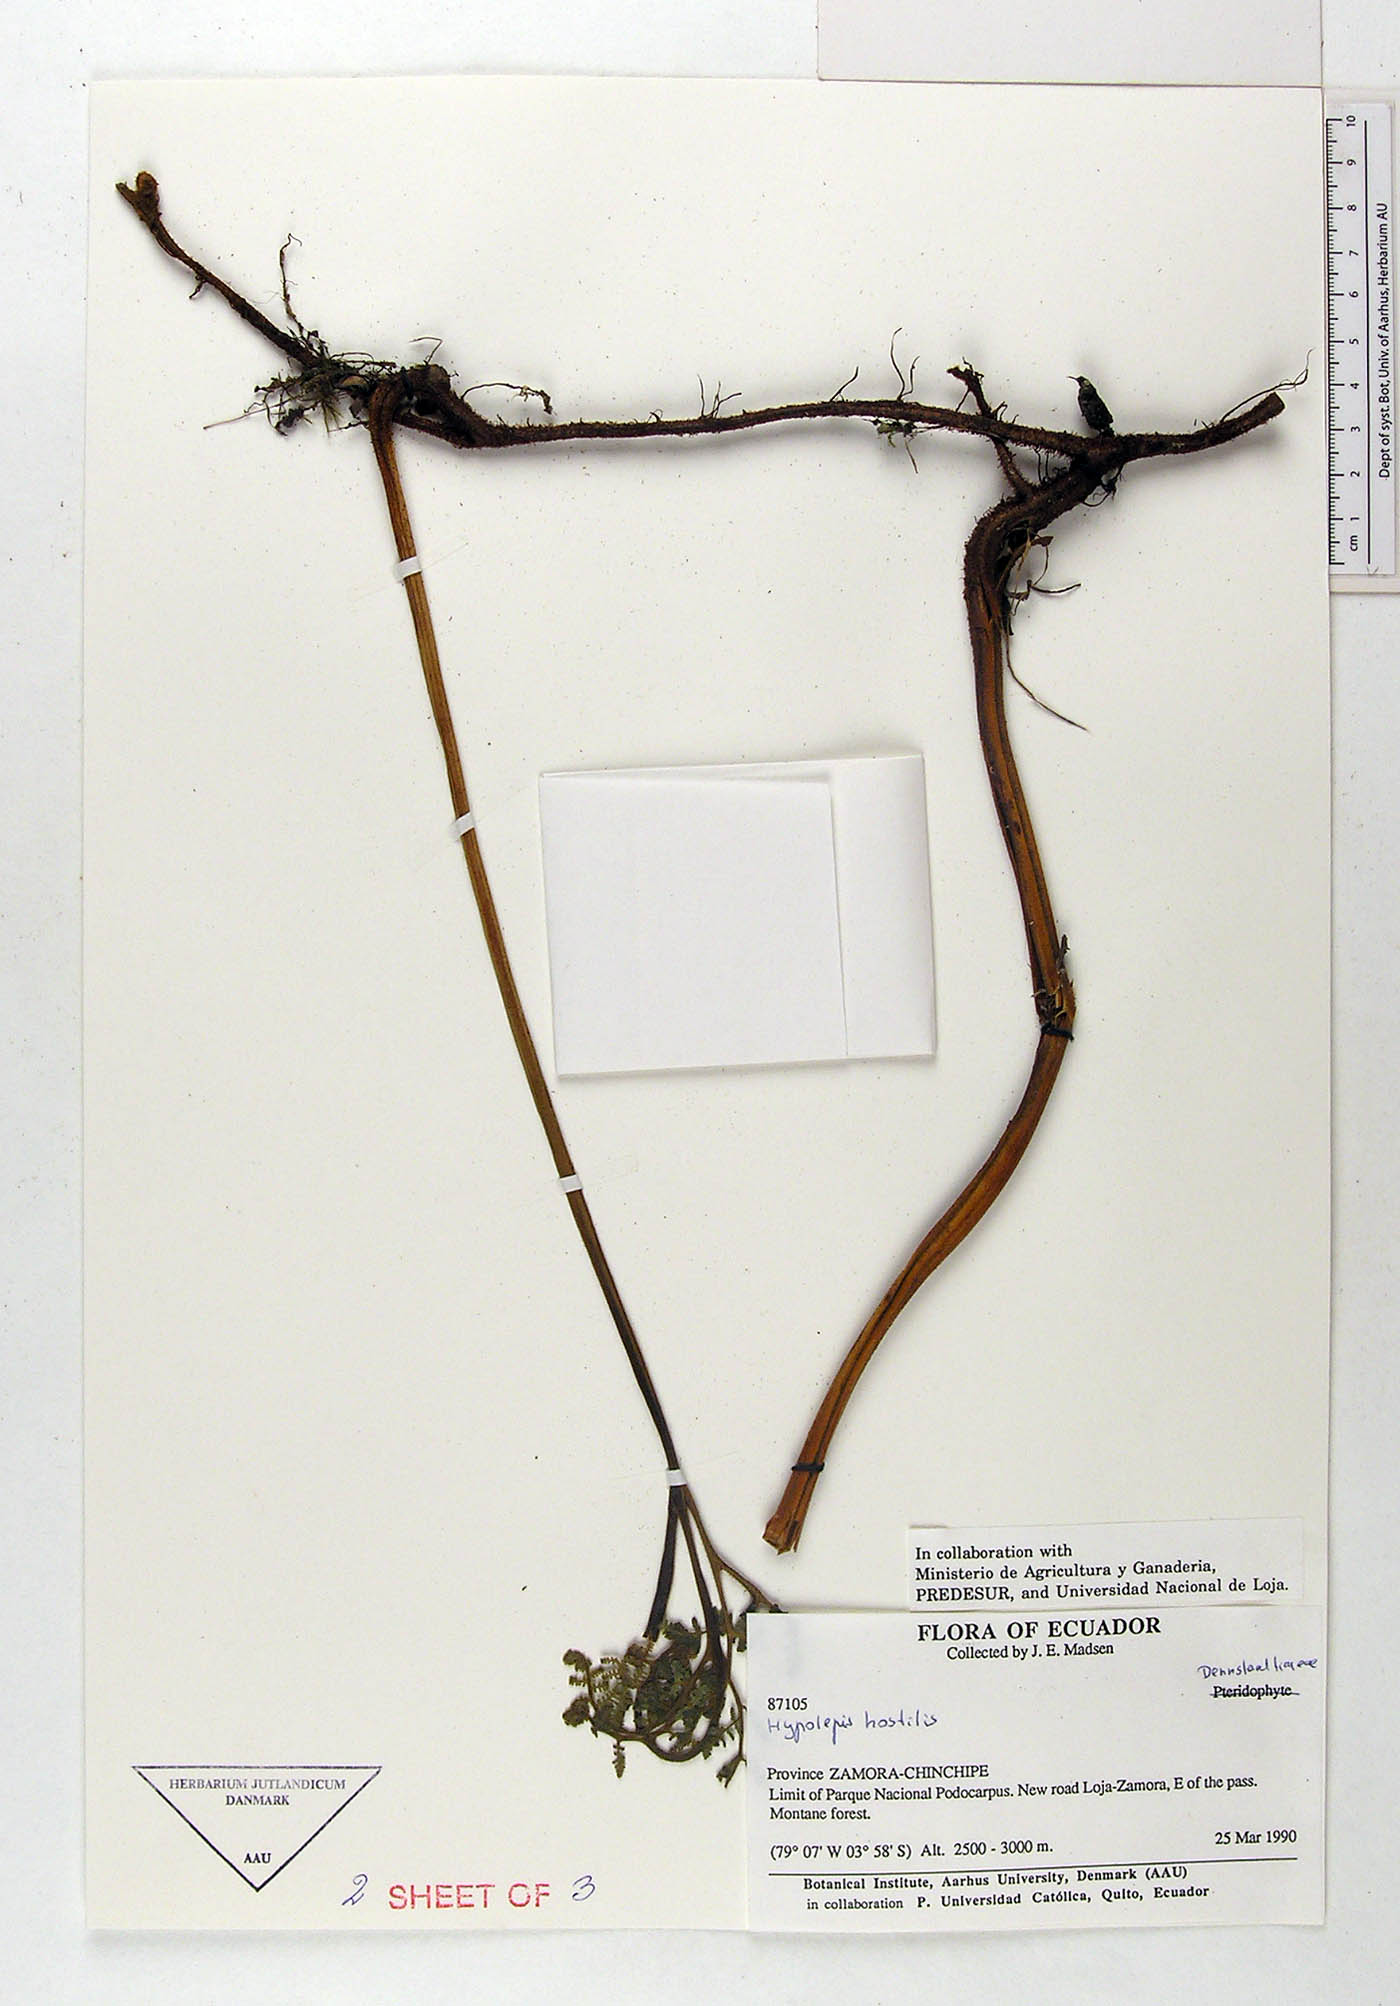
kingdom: Plantae
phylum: Tracheophyta
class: Polypodiopsida
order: Polypodiales
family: Dennstaedtiaceae
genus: Hypolepis
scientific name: Hypolepis hostilis
